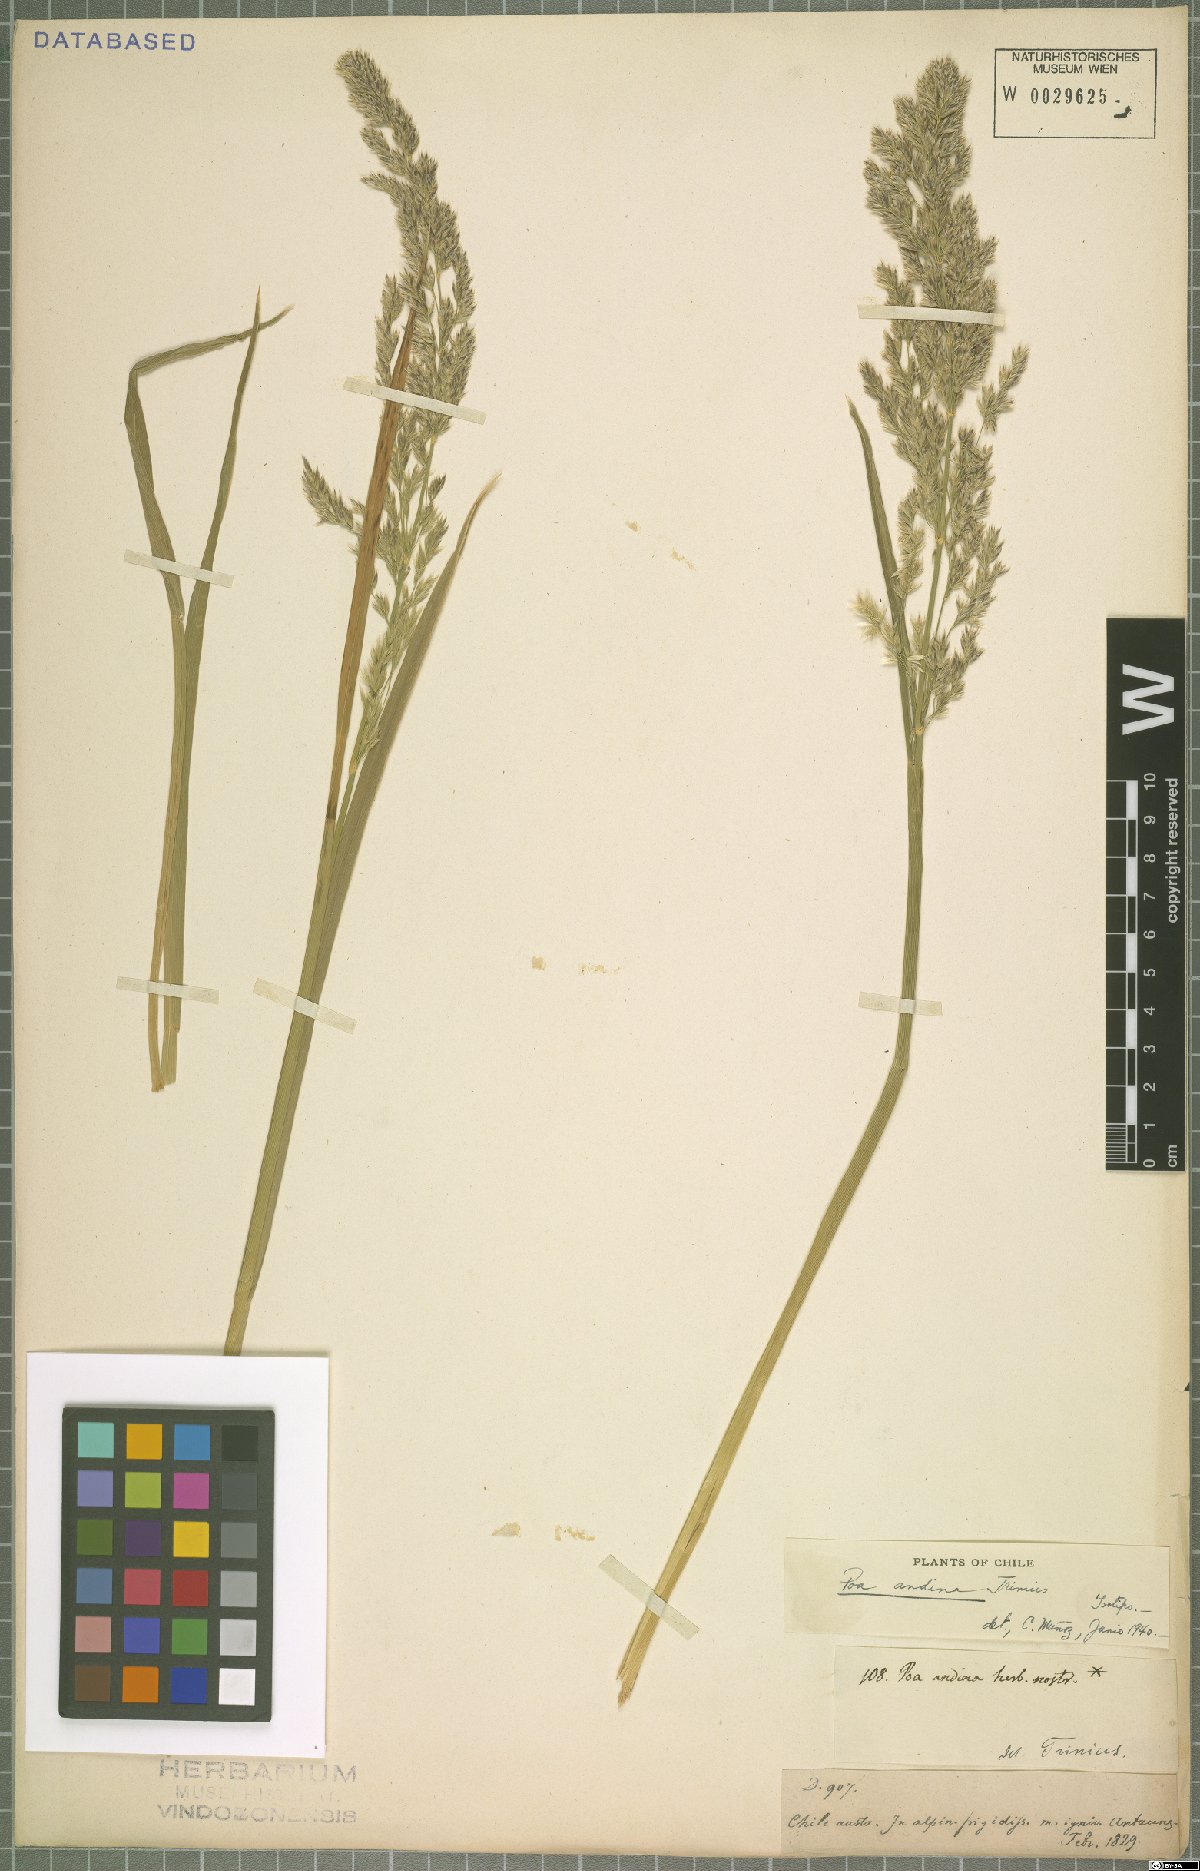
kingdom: Plantae
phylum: Tracheophyta
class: Liliopsida
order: Poales
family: Poaceae
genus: Nicoraepoa
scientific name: Nicoraepoa andina
